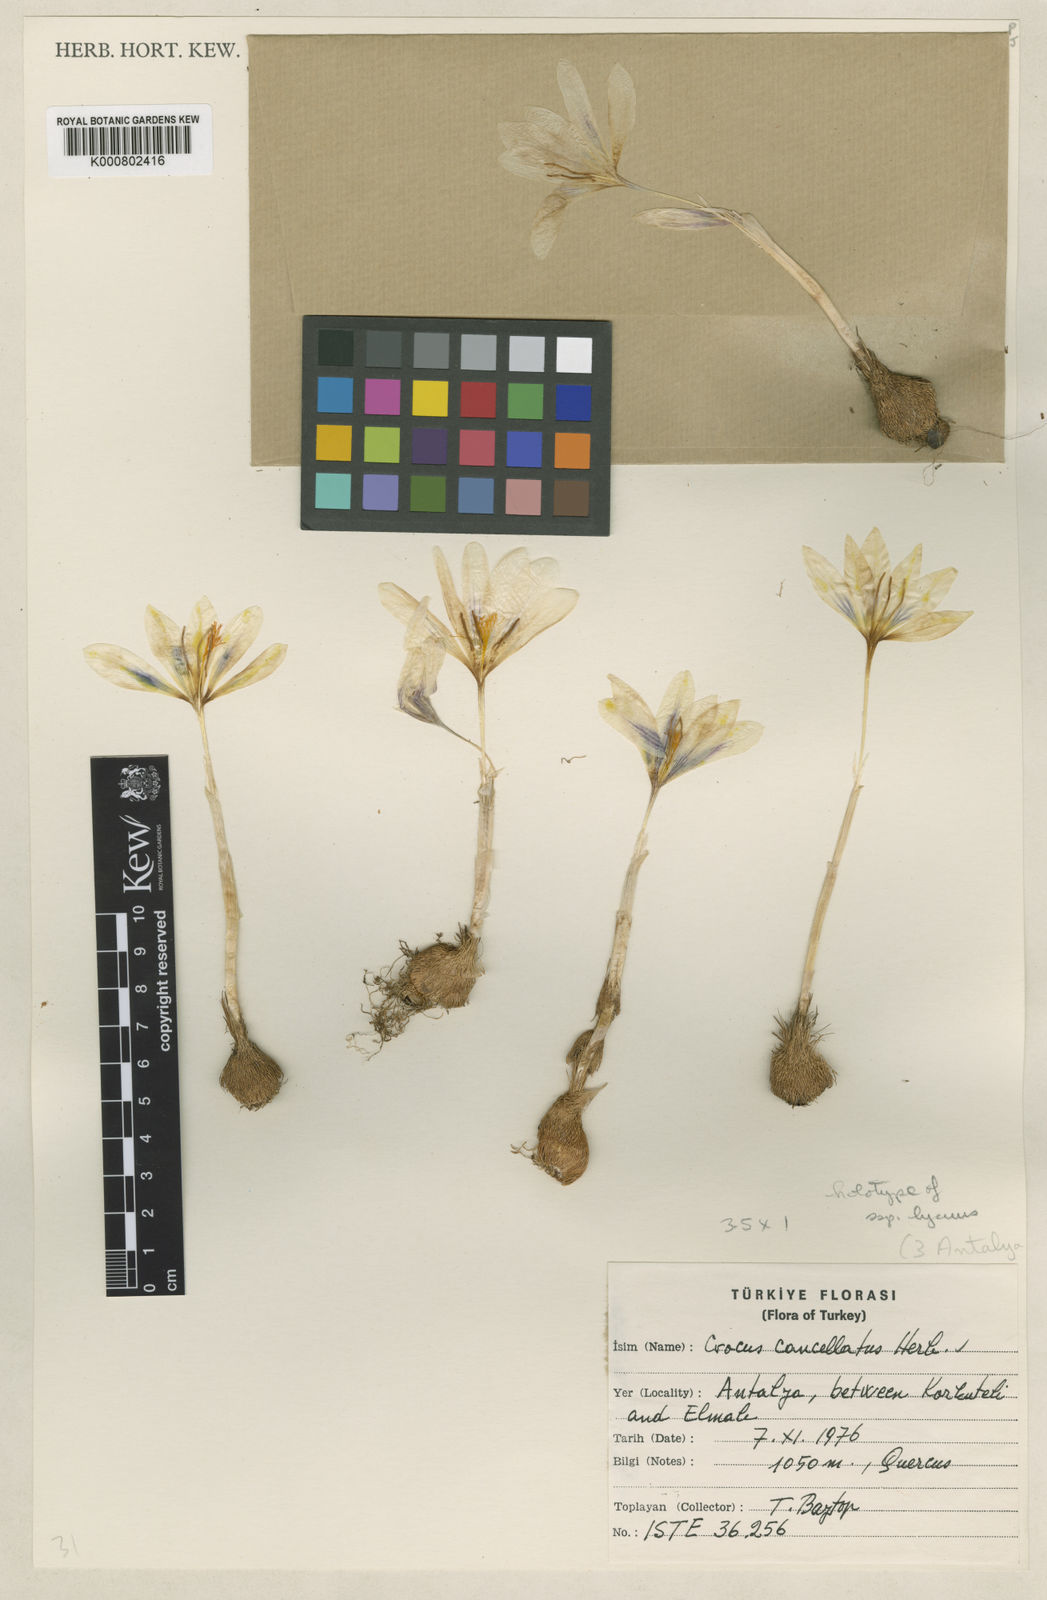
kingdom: Plantae
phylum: Tracheophyta
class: Liliopsida
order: Asparagales
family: Iridaceae
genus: Crocus
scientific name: Crocus lycius
